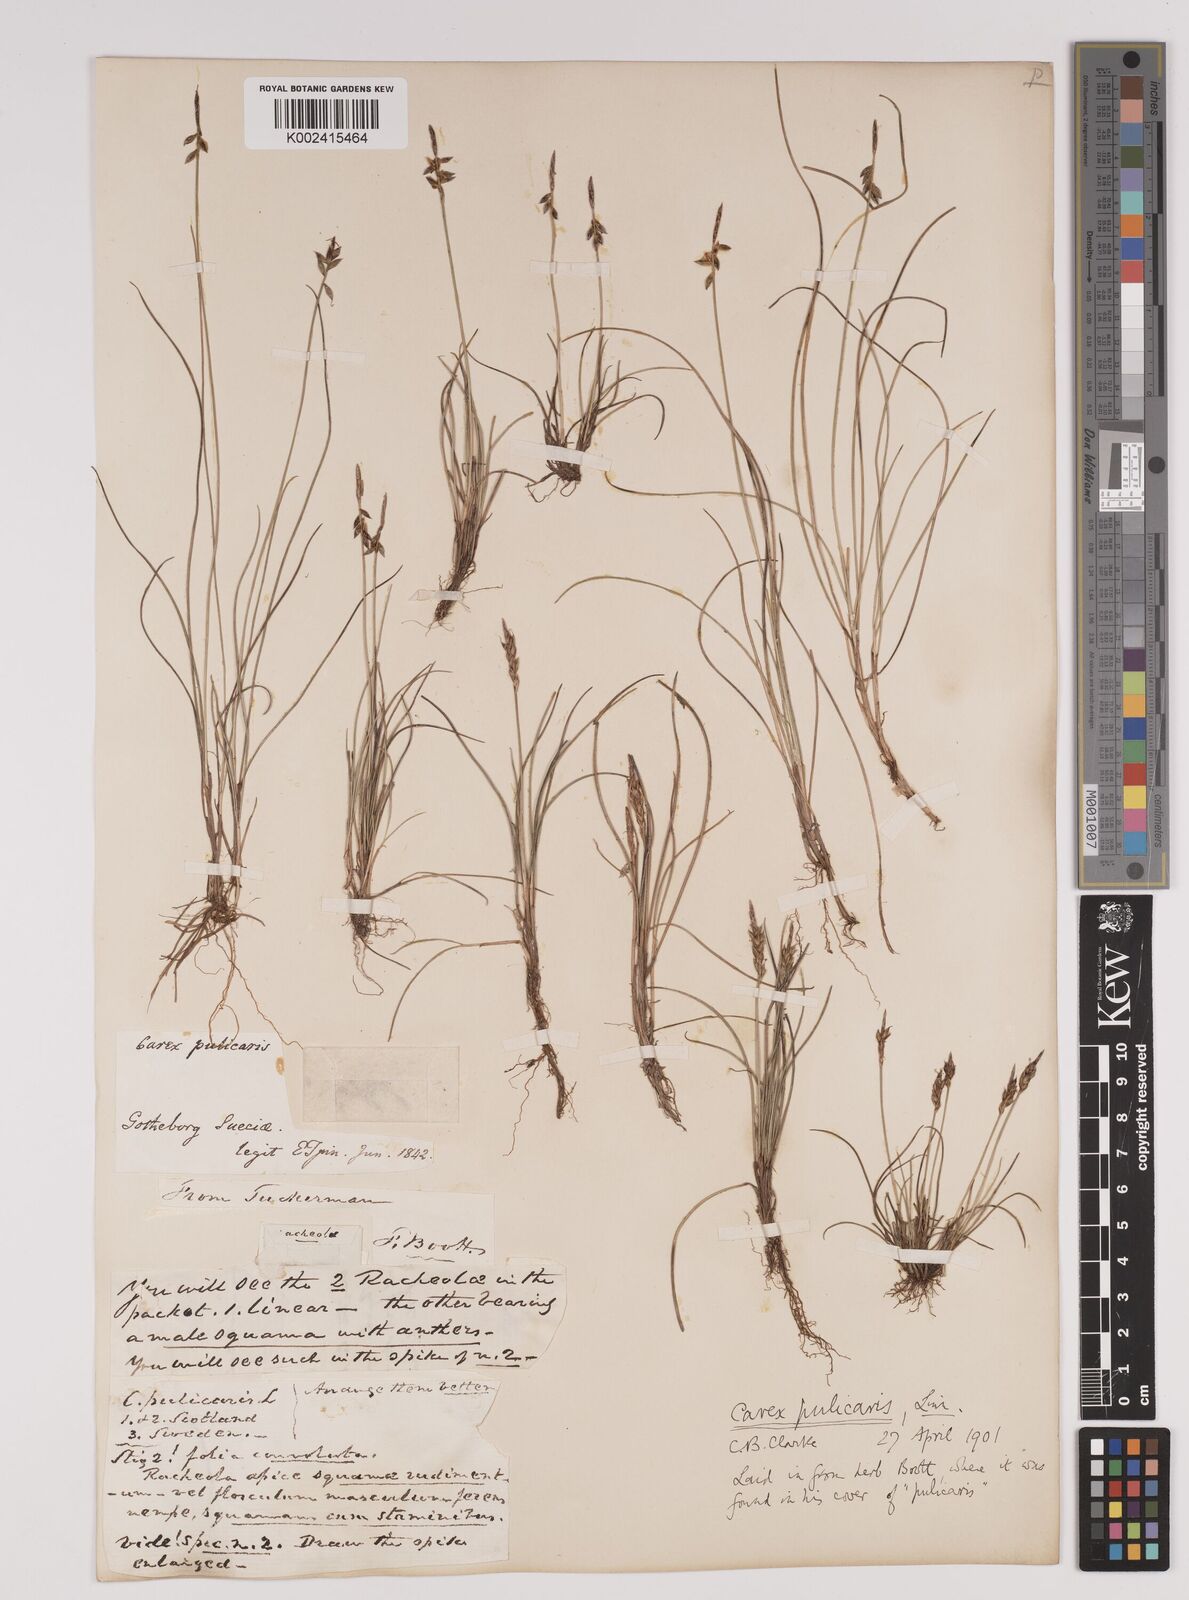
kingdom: Plantae
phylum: Tracheophyta
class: Liliopsida
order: Poales
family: Cyperaceae
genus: Carex
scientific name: Carex pulicaris
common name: Flea sedge
